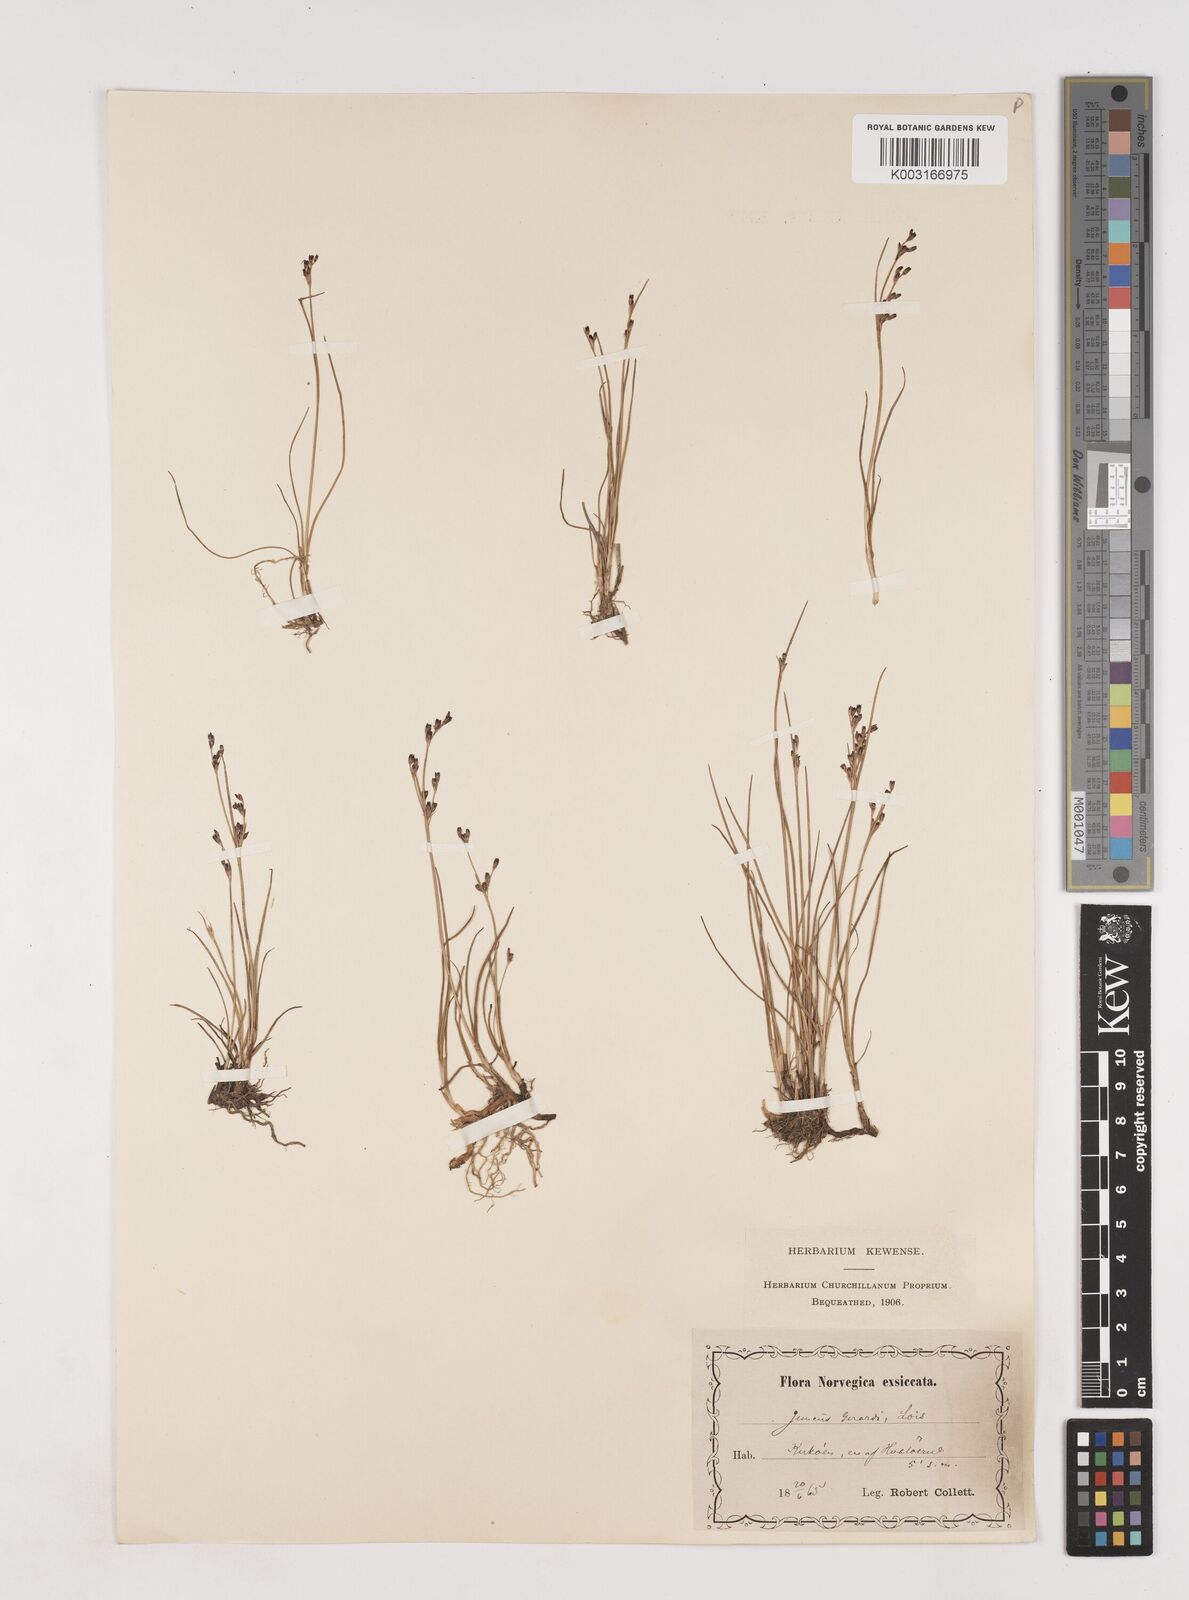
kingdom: Plantae
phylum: Tracheophyta
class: Liliopsida
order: Poales
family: Juncaceae
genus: Juncus
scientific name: Juncus gerardi
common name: Saltmarsh rush
